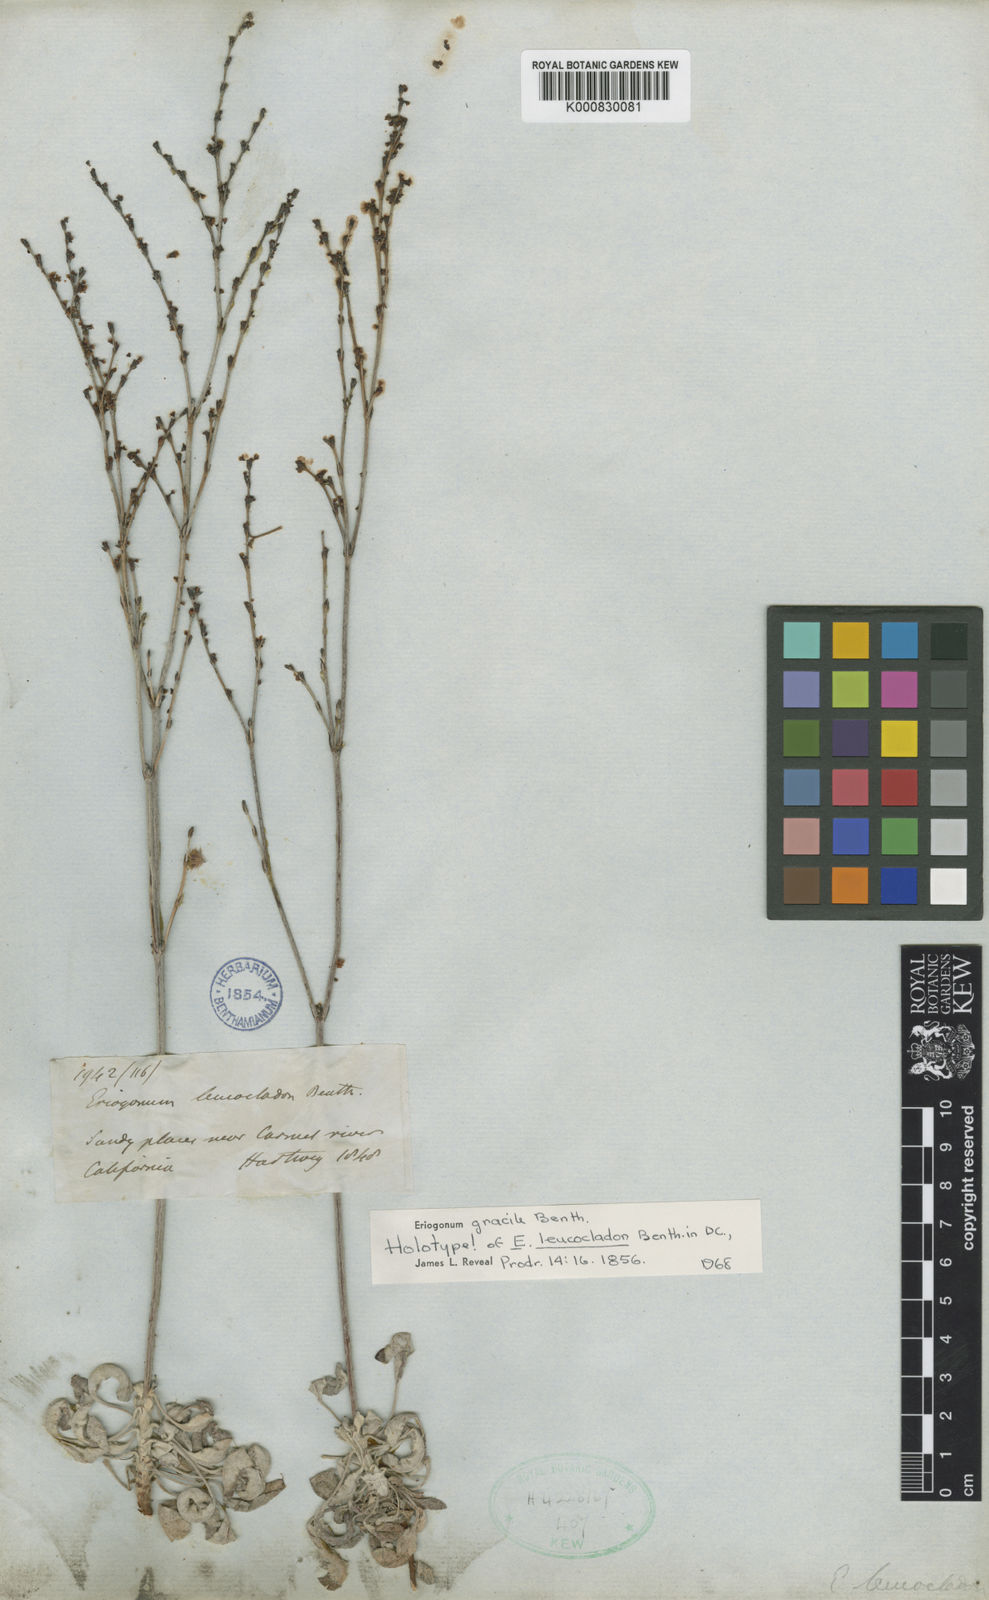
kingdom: Plantae
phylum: Tracheophyta
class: Magnoliopsida
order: Caryophyllales
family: Polygonaceae
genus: Eriogonum
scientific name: Eriogonum gracile
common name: Slender woolly buckwheat
